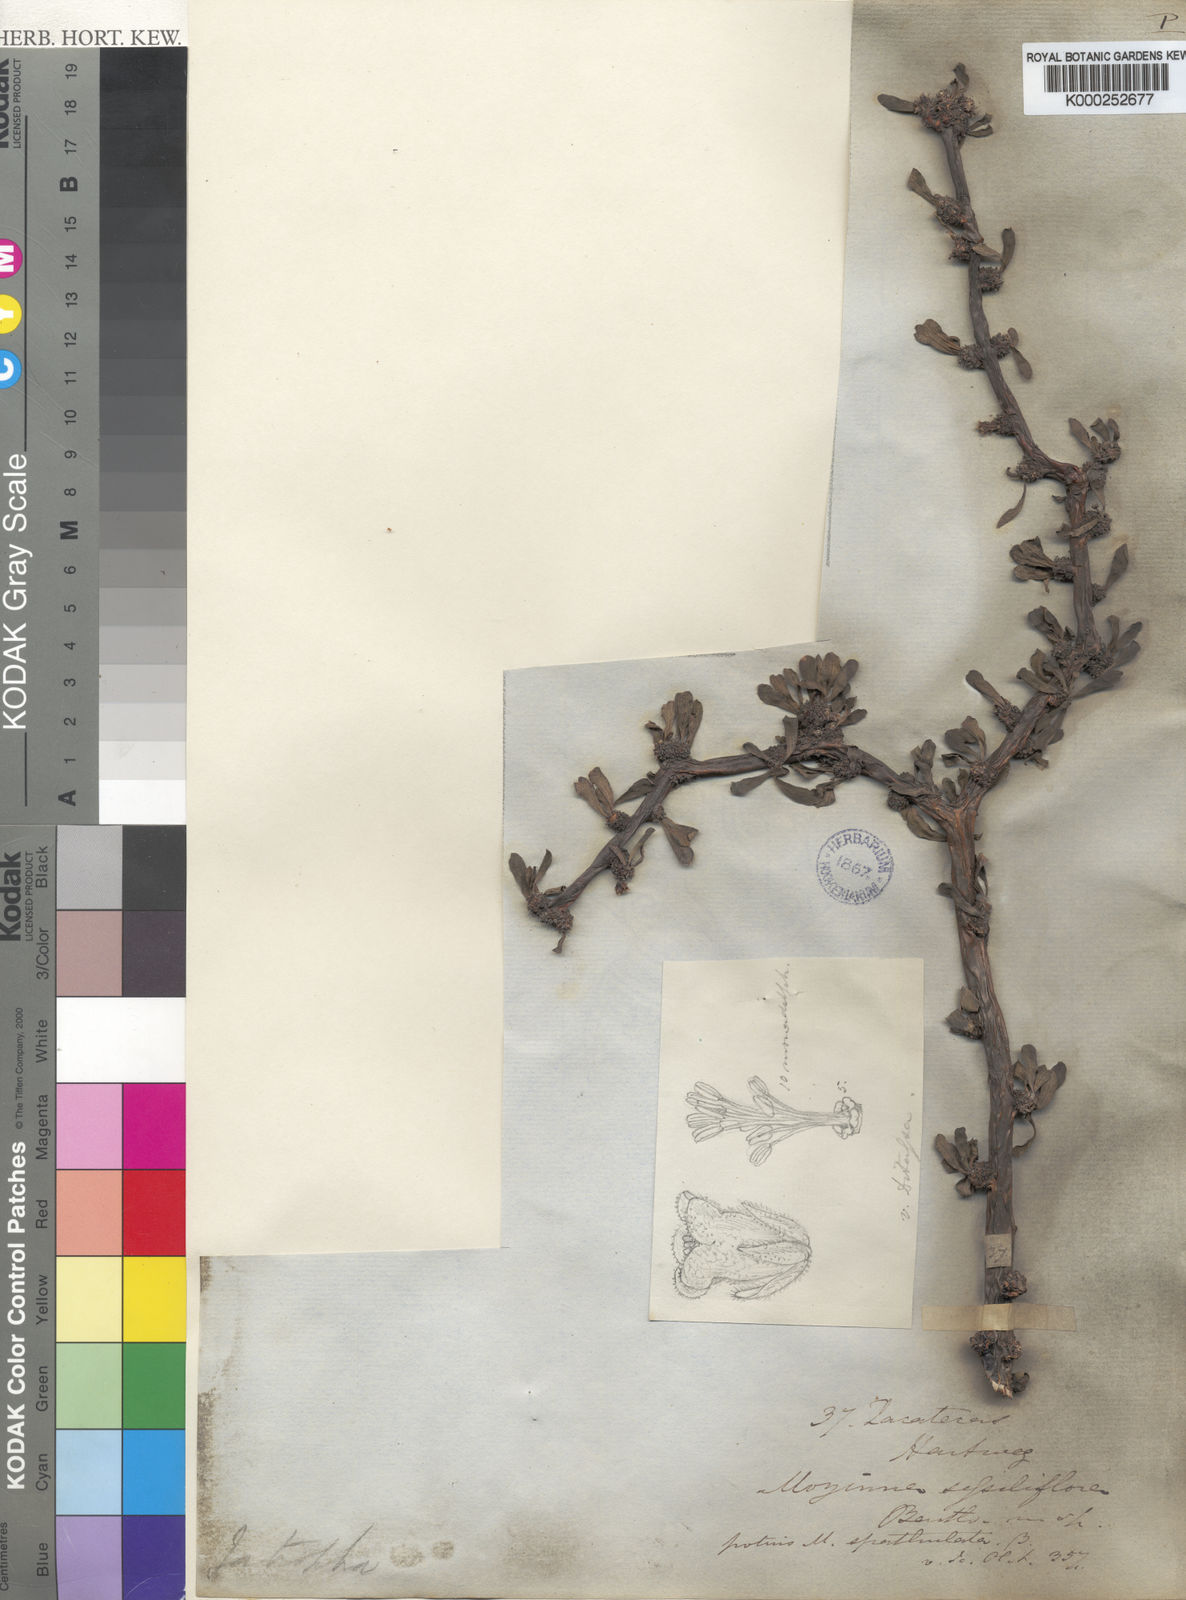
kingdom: Plantae
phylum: Tracheophyta
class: Magnoliopsida
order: Malpighiales
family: Euphorbiaceae
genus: Jatropha
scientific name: Jatropha
